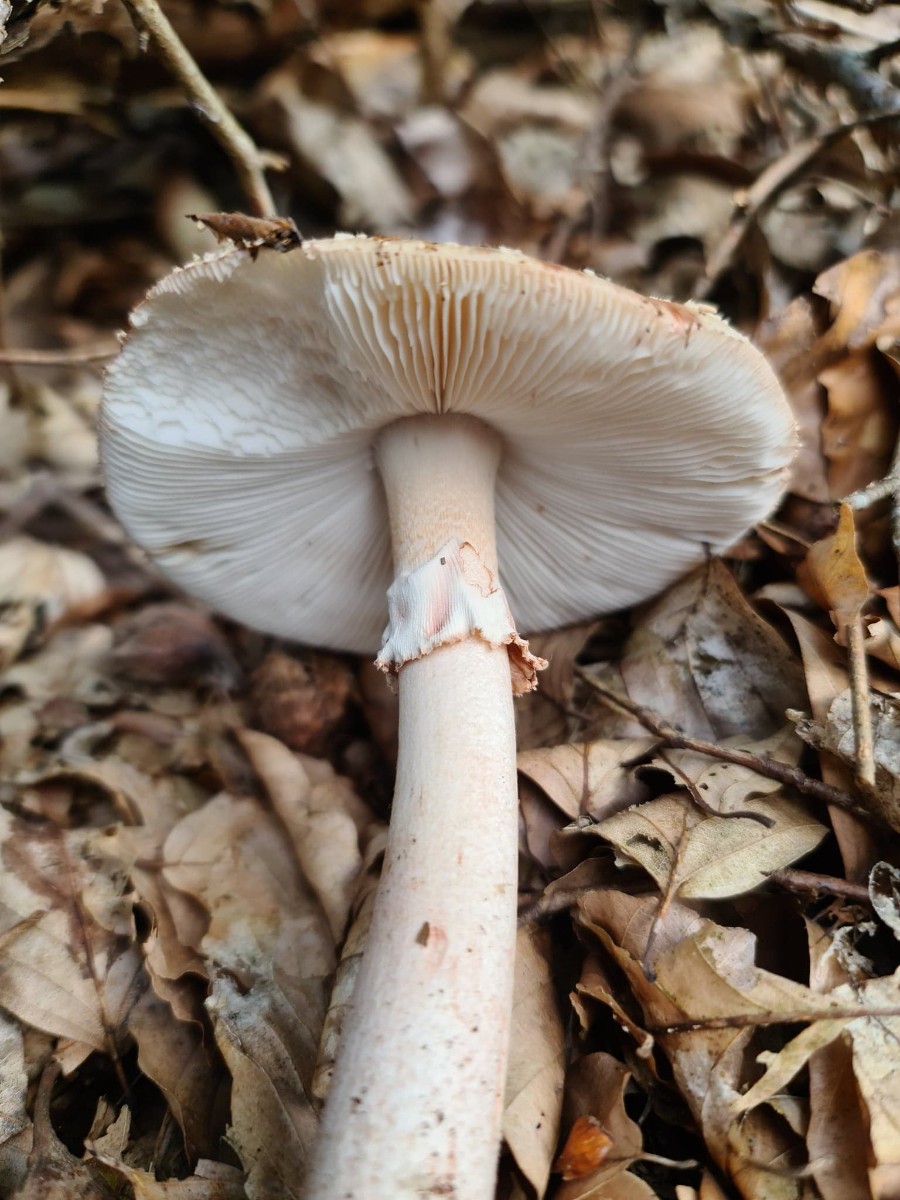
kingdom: Fungi
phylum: Basidiomycota
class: Agaricomycetes
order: Agaricales
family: Amanitaceae
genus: Amanita
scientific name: Amanita rubescens
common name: rødmende fluesvamp
